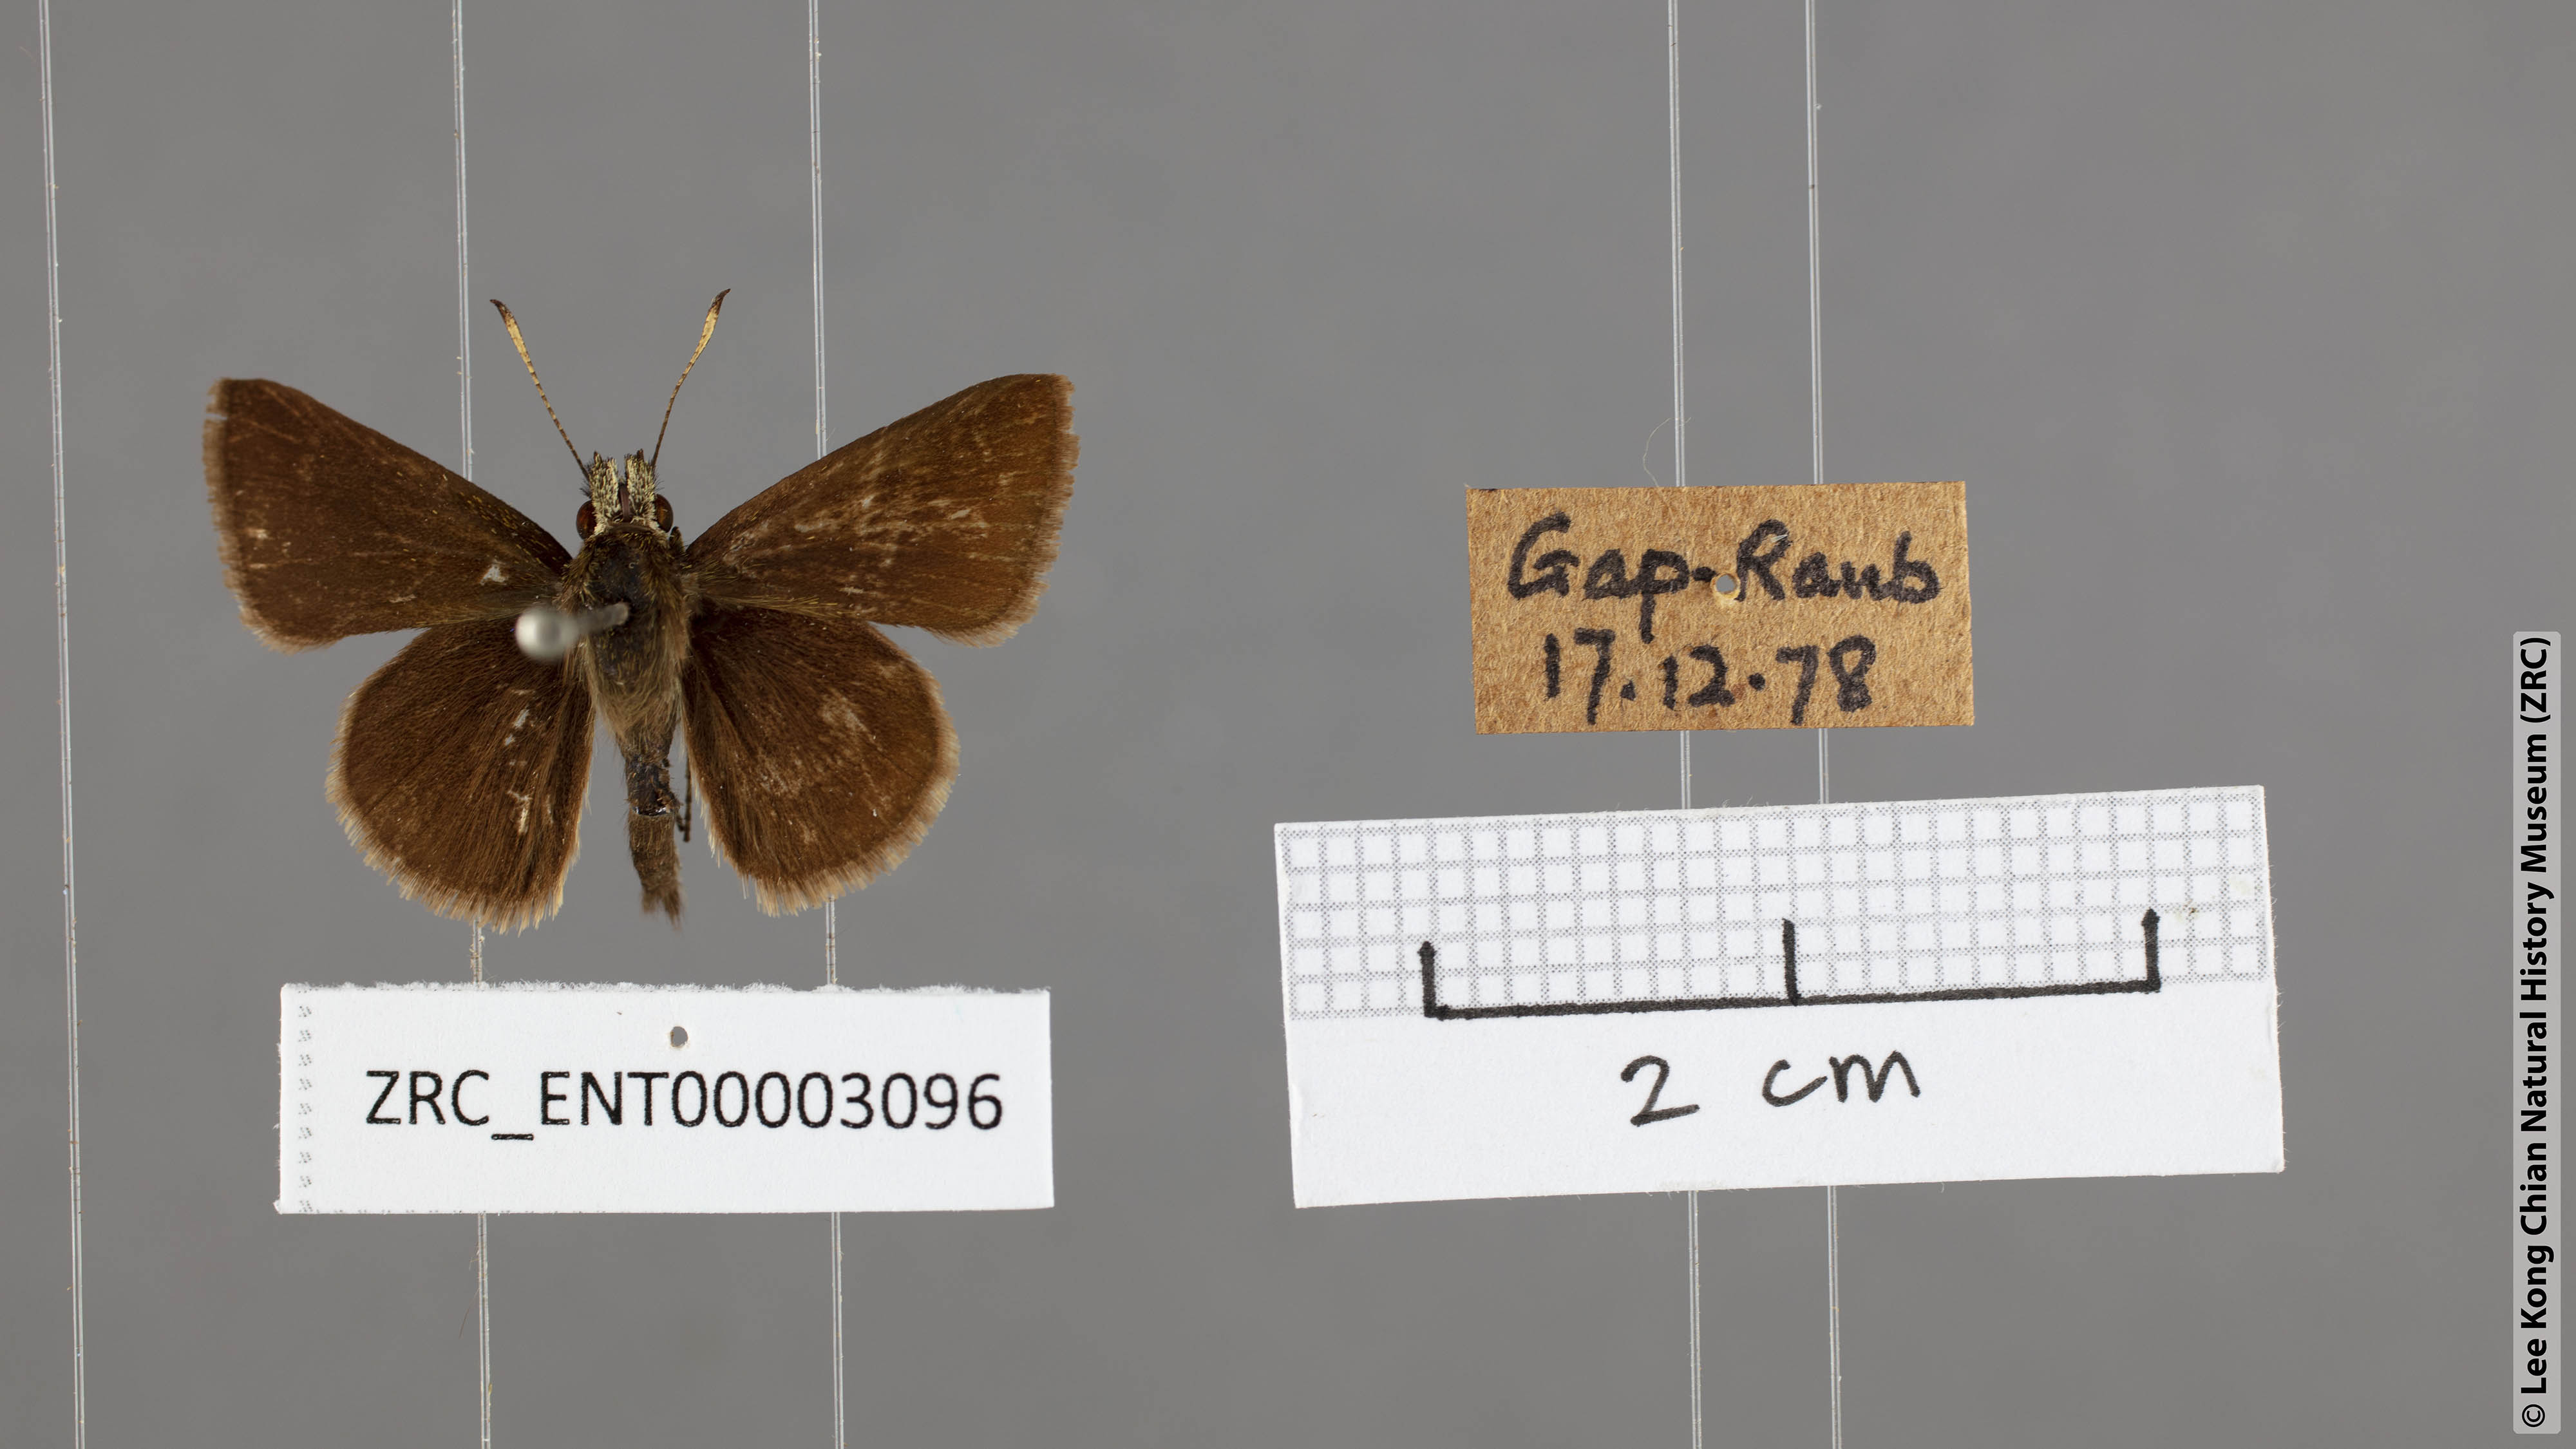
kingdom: Animalia
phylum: Arthropoda
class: Insecta
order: Lepidoptera
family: Hesperiidae
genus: Aeromachus
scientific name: Aeromachus jhora
